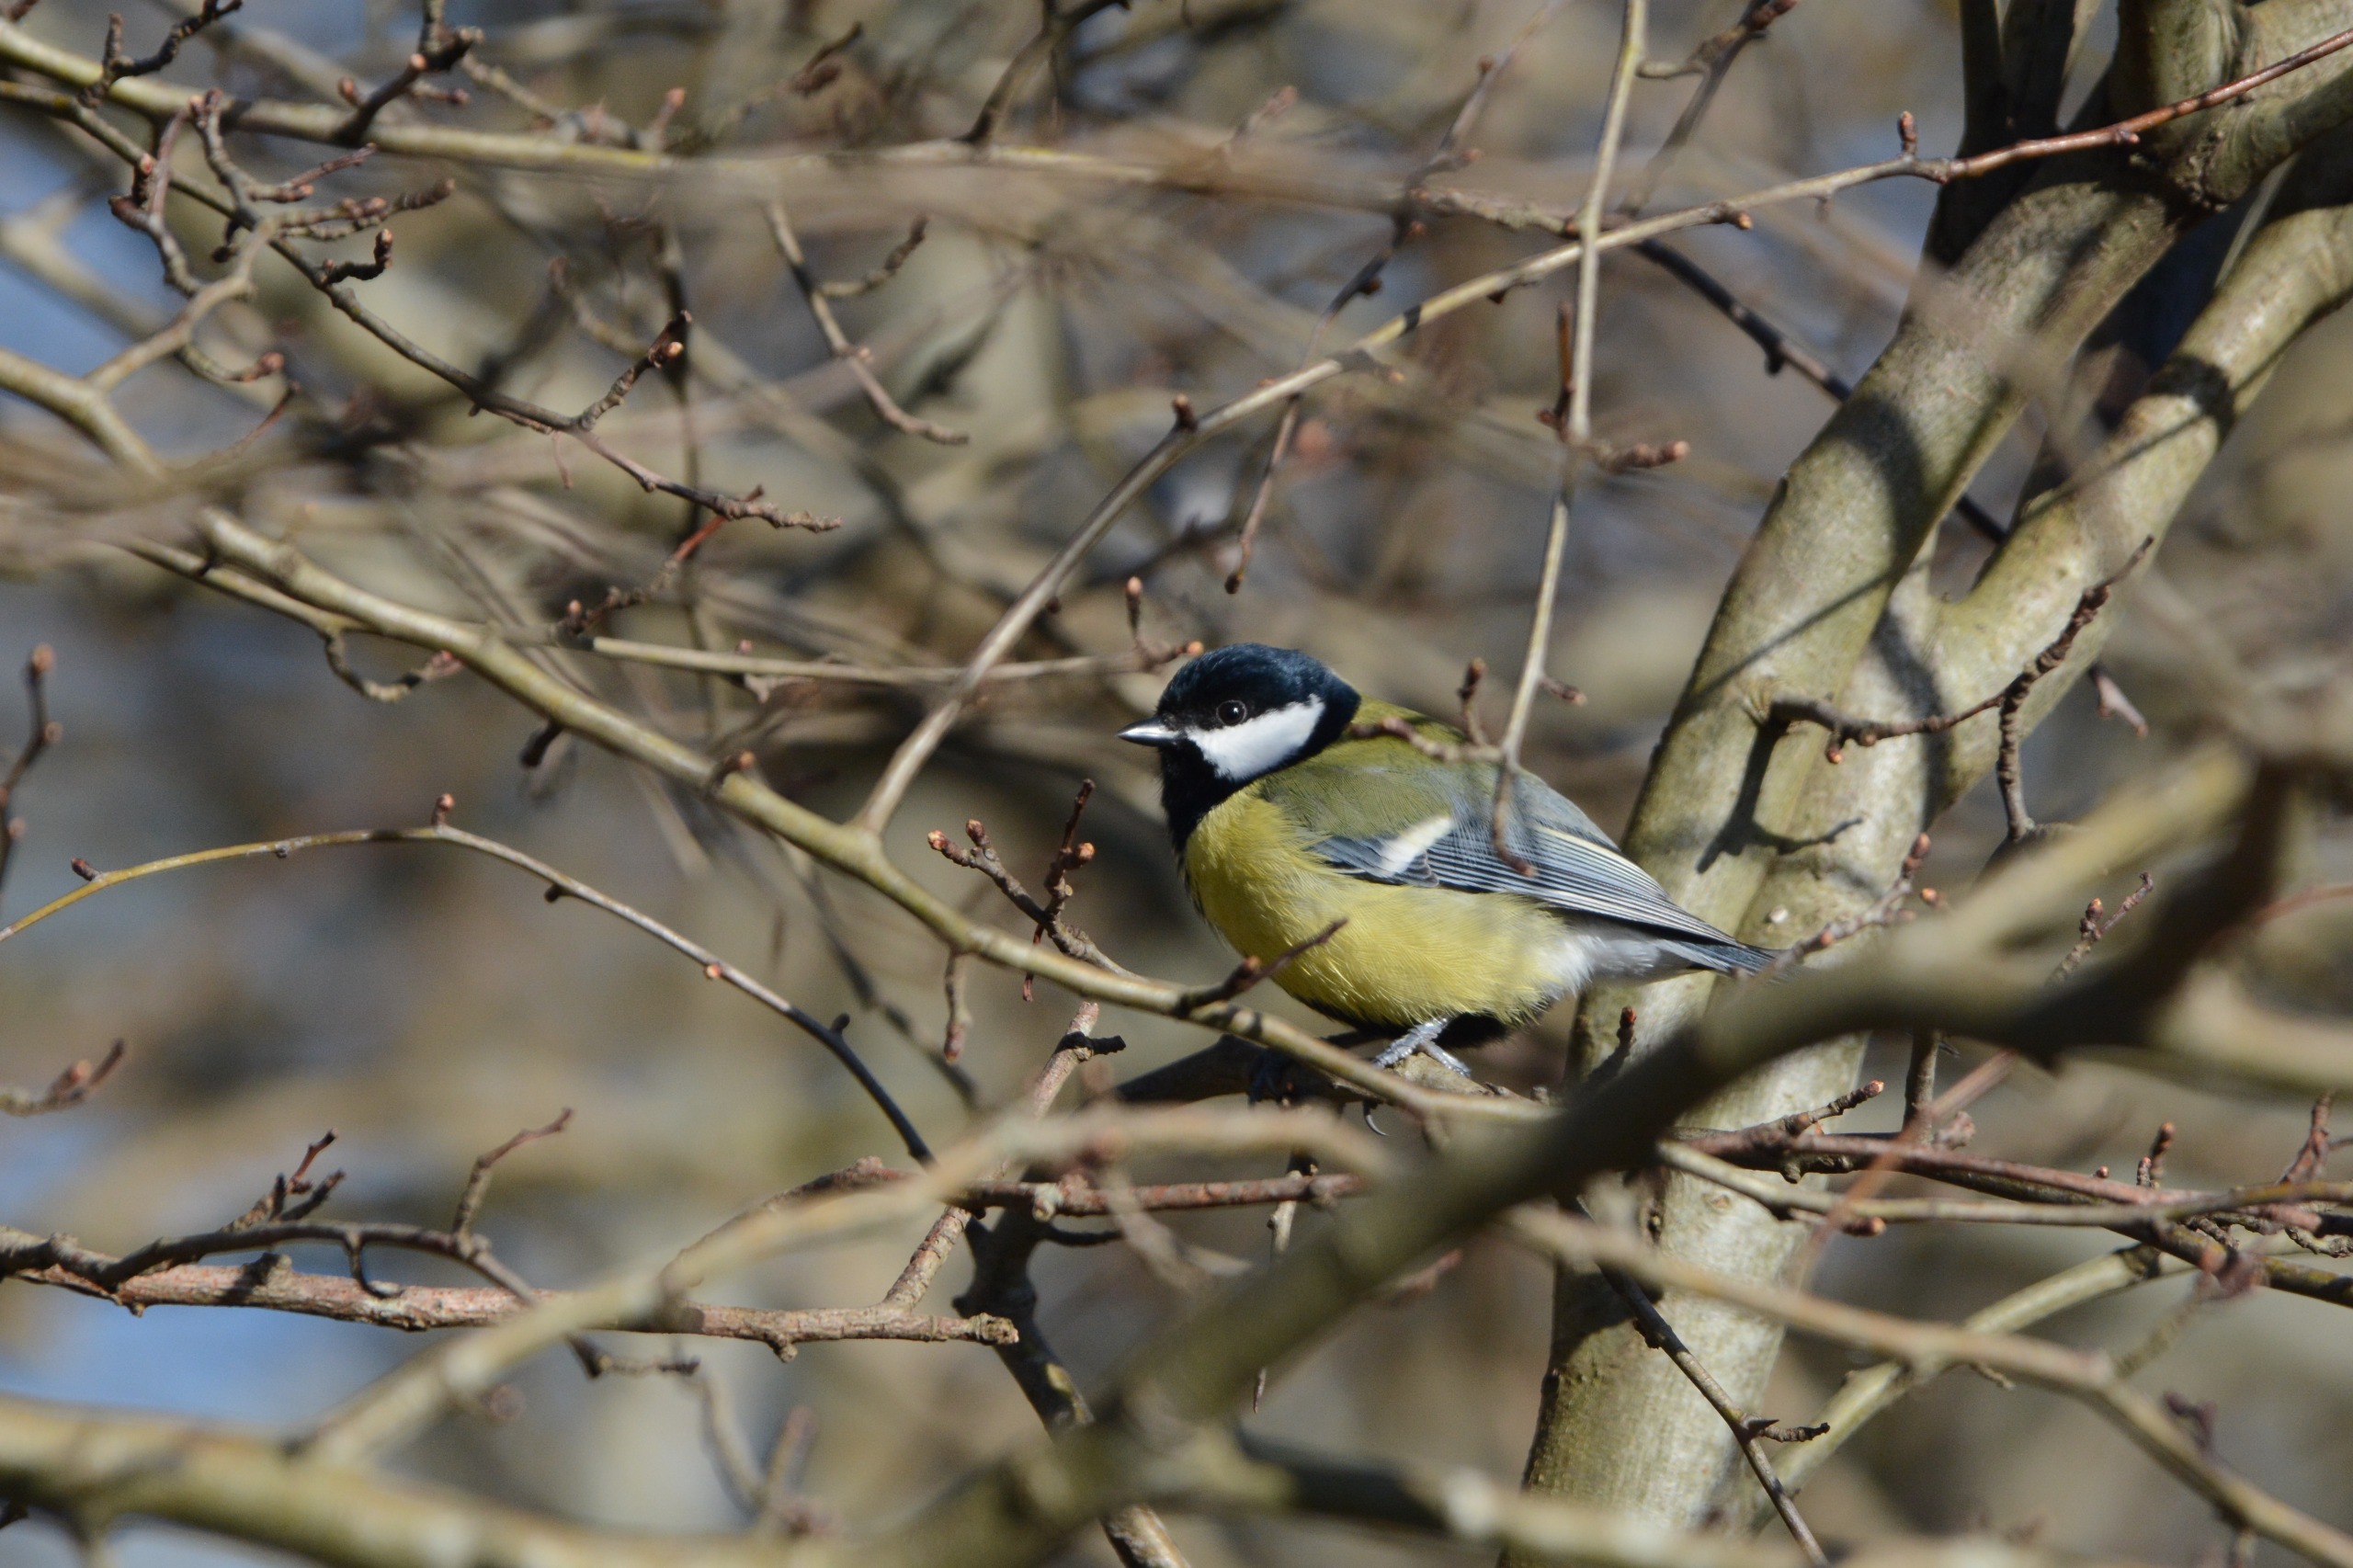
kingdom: Animalia
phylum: Chordata
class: Aves
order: Passeriformes
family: Paridae
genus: Parus
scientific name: Parus major
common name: Musvit
